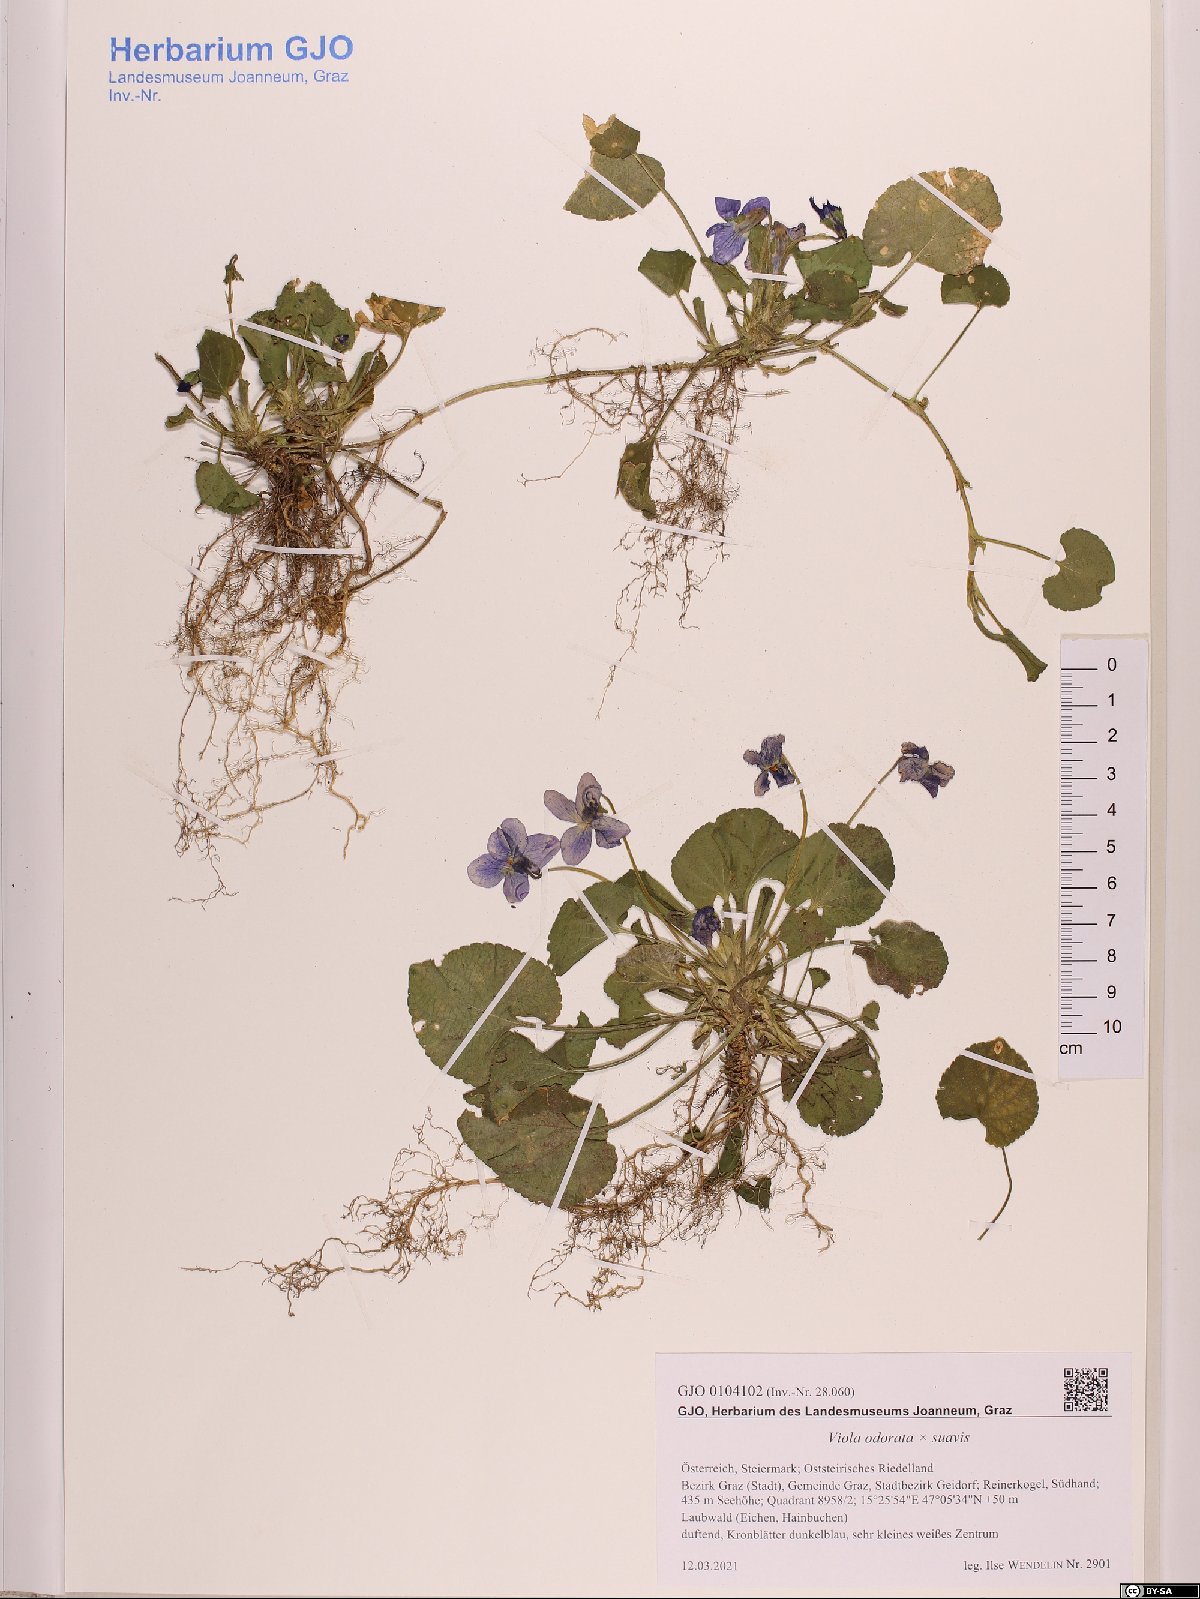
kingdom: Plantae
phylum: Tracheophyta
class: Magnoliopsida
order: Malpighiales
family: Violaceae
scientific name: Violaceae
